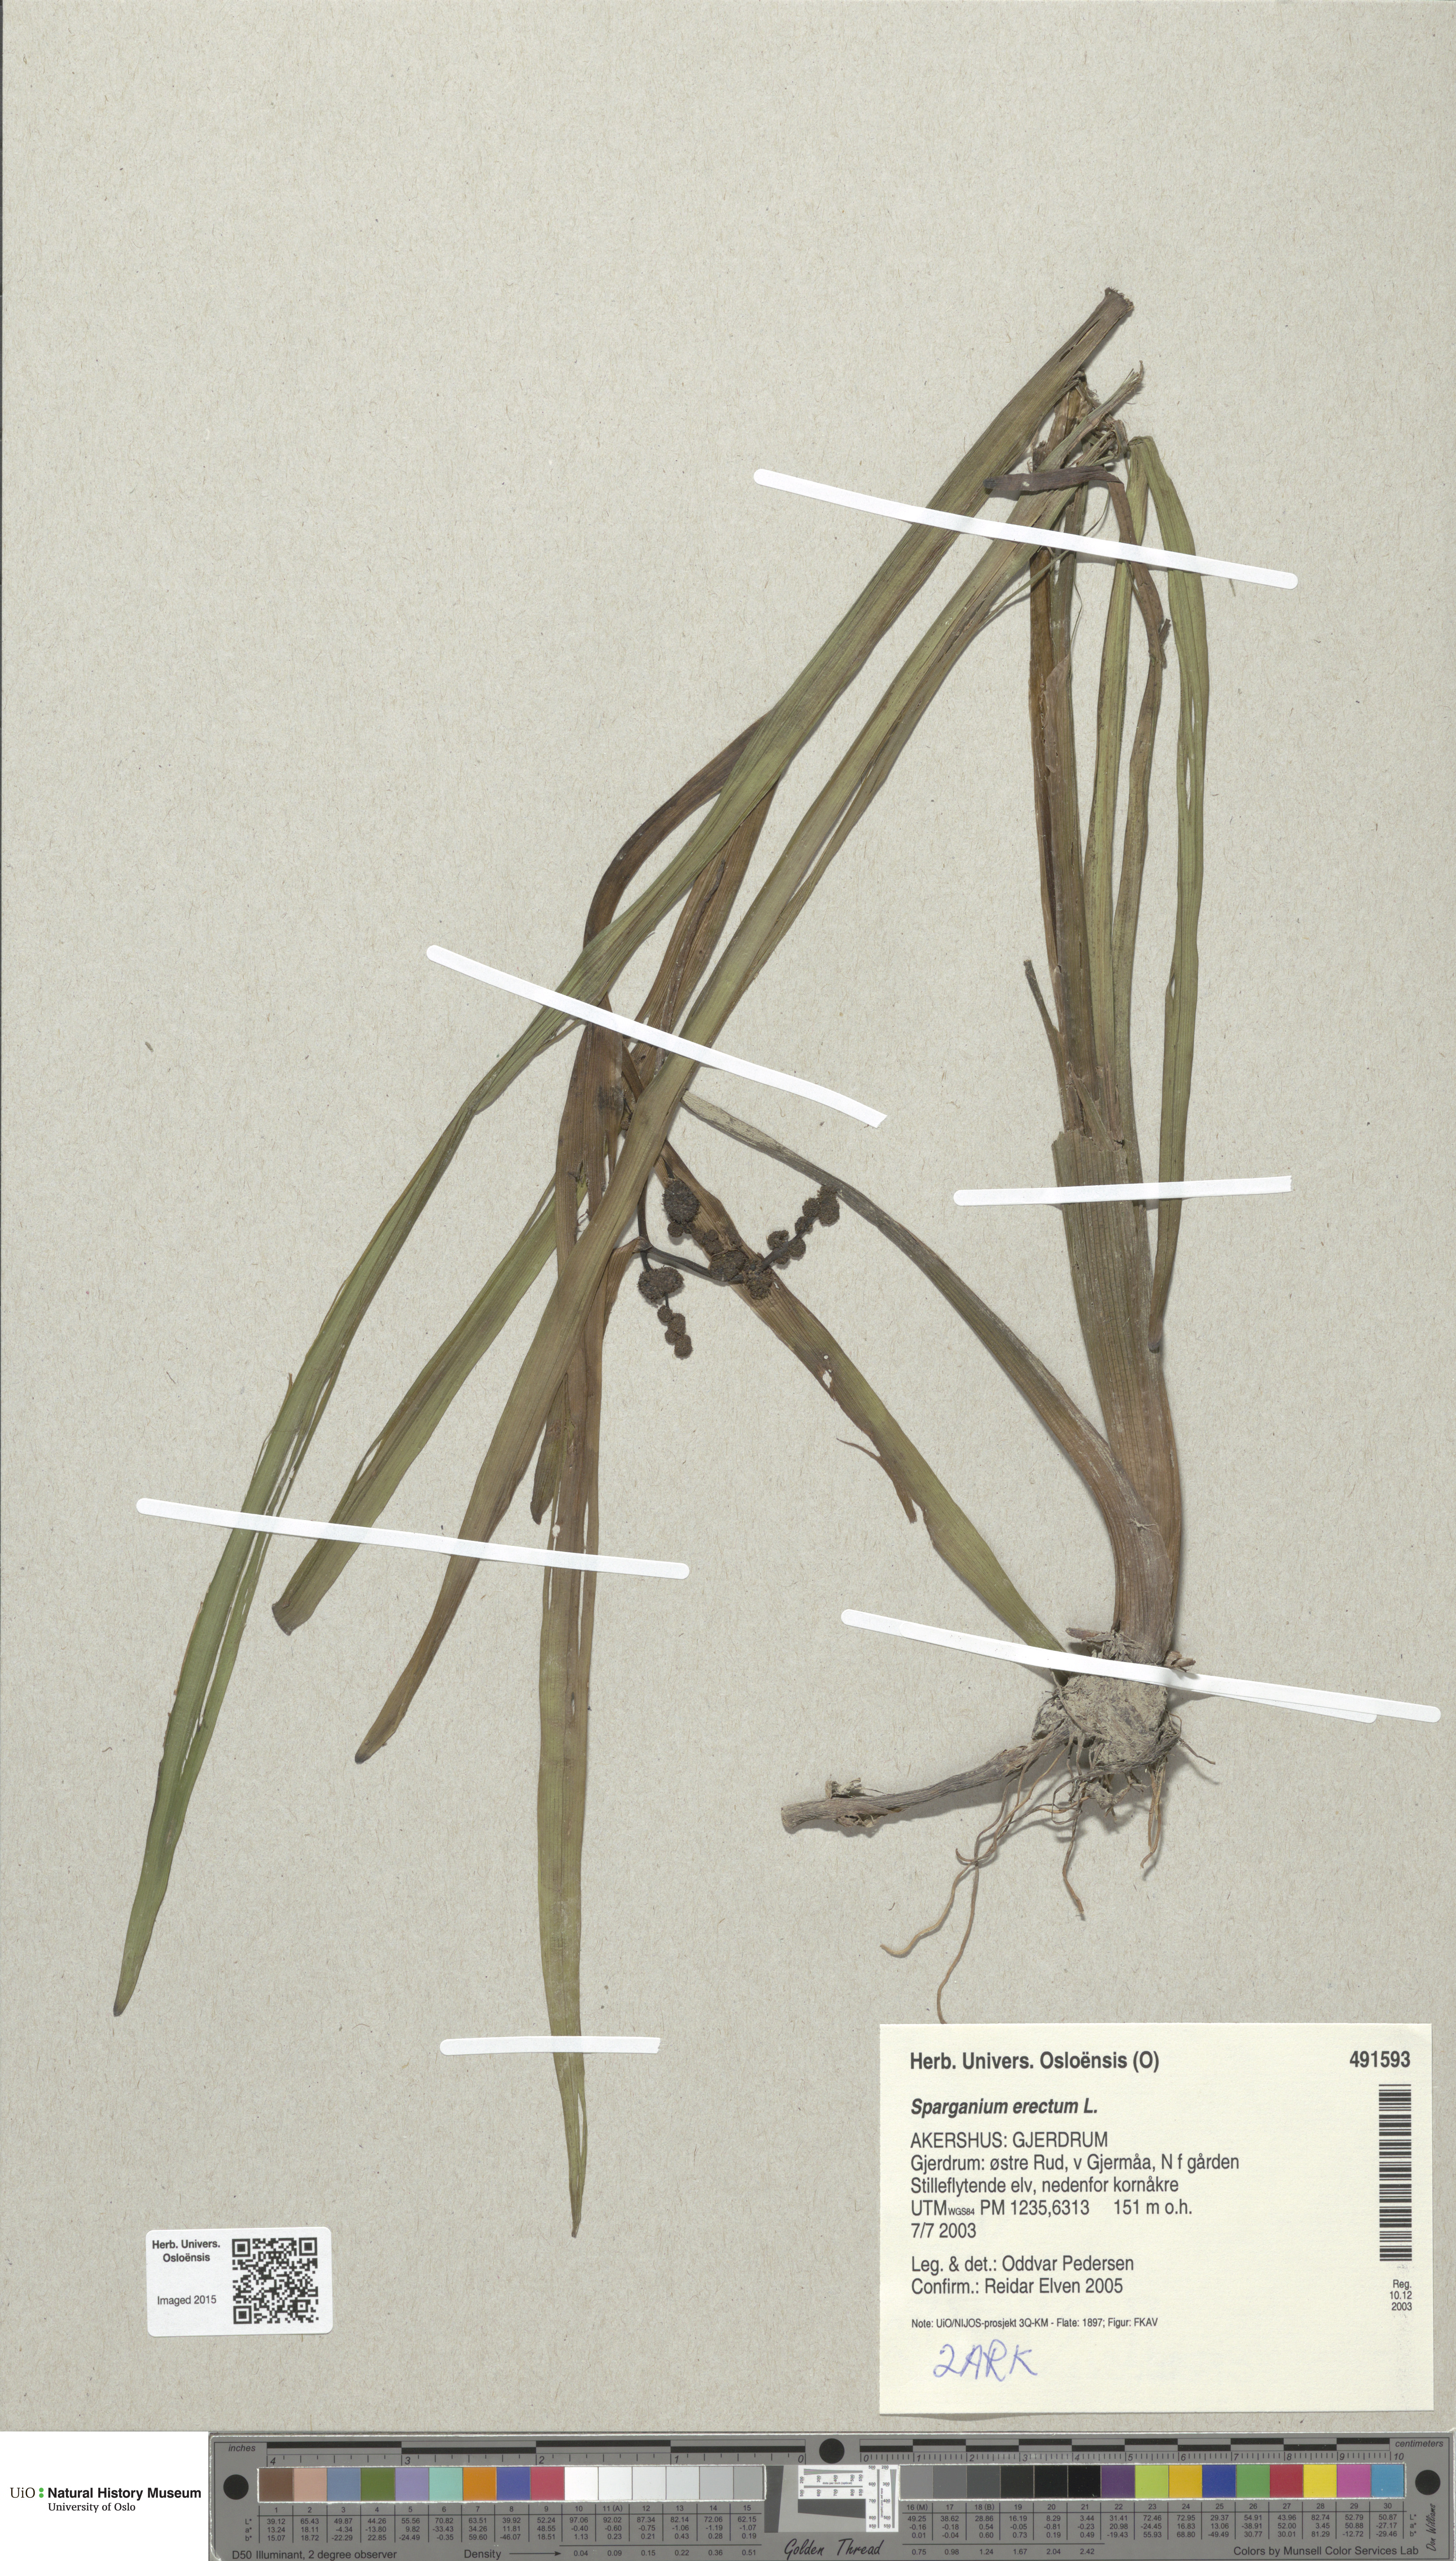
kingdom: Plantae
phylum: Tracheophyta
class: Liliopsida
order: Poales
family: Typhaceae
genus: Sparganium
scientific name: Sparganium erectum
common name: Branched bur-reed
